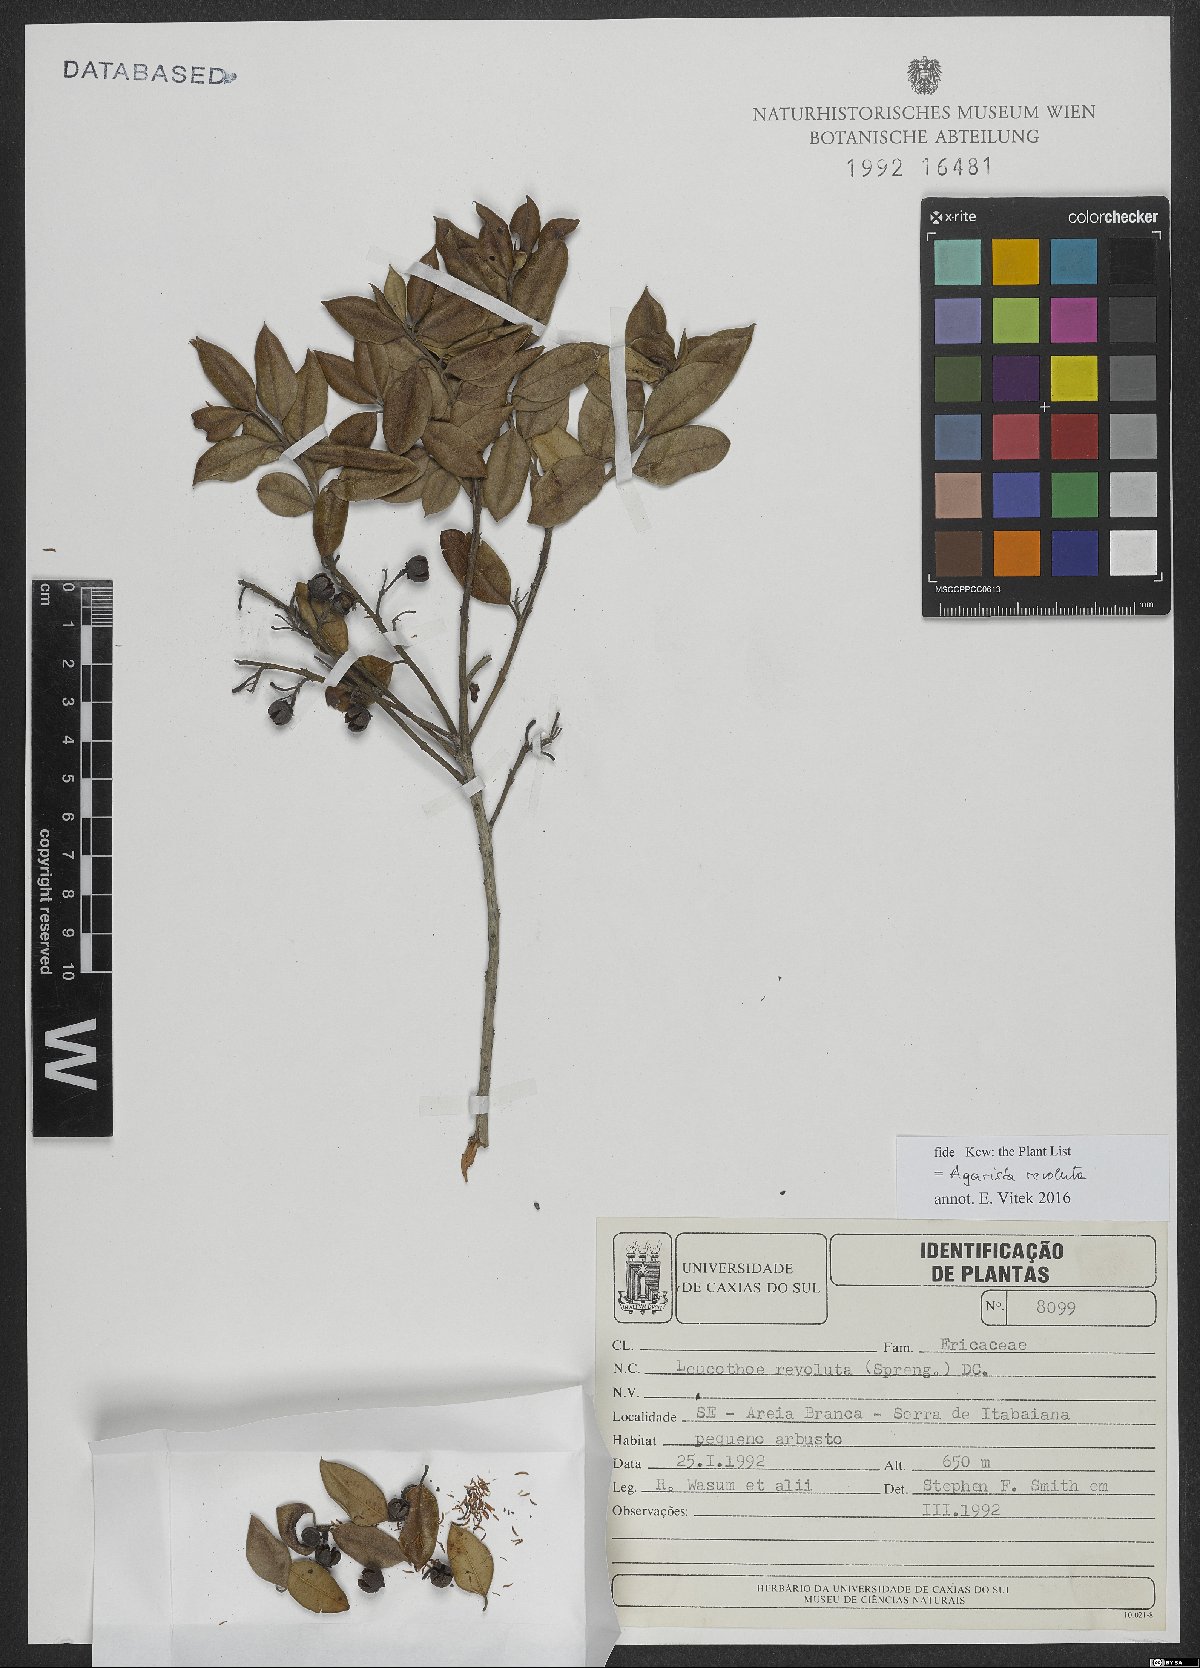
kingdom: Plantae
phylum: Tracheophyta
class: Magnoliopsida
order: Ericales
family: Ericaceae
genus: Agarista
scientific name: Agarista revoluta
